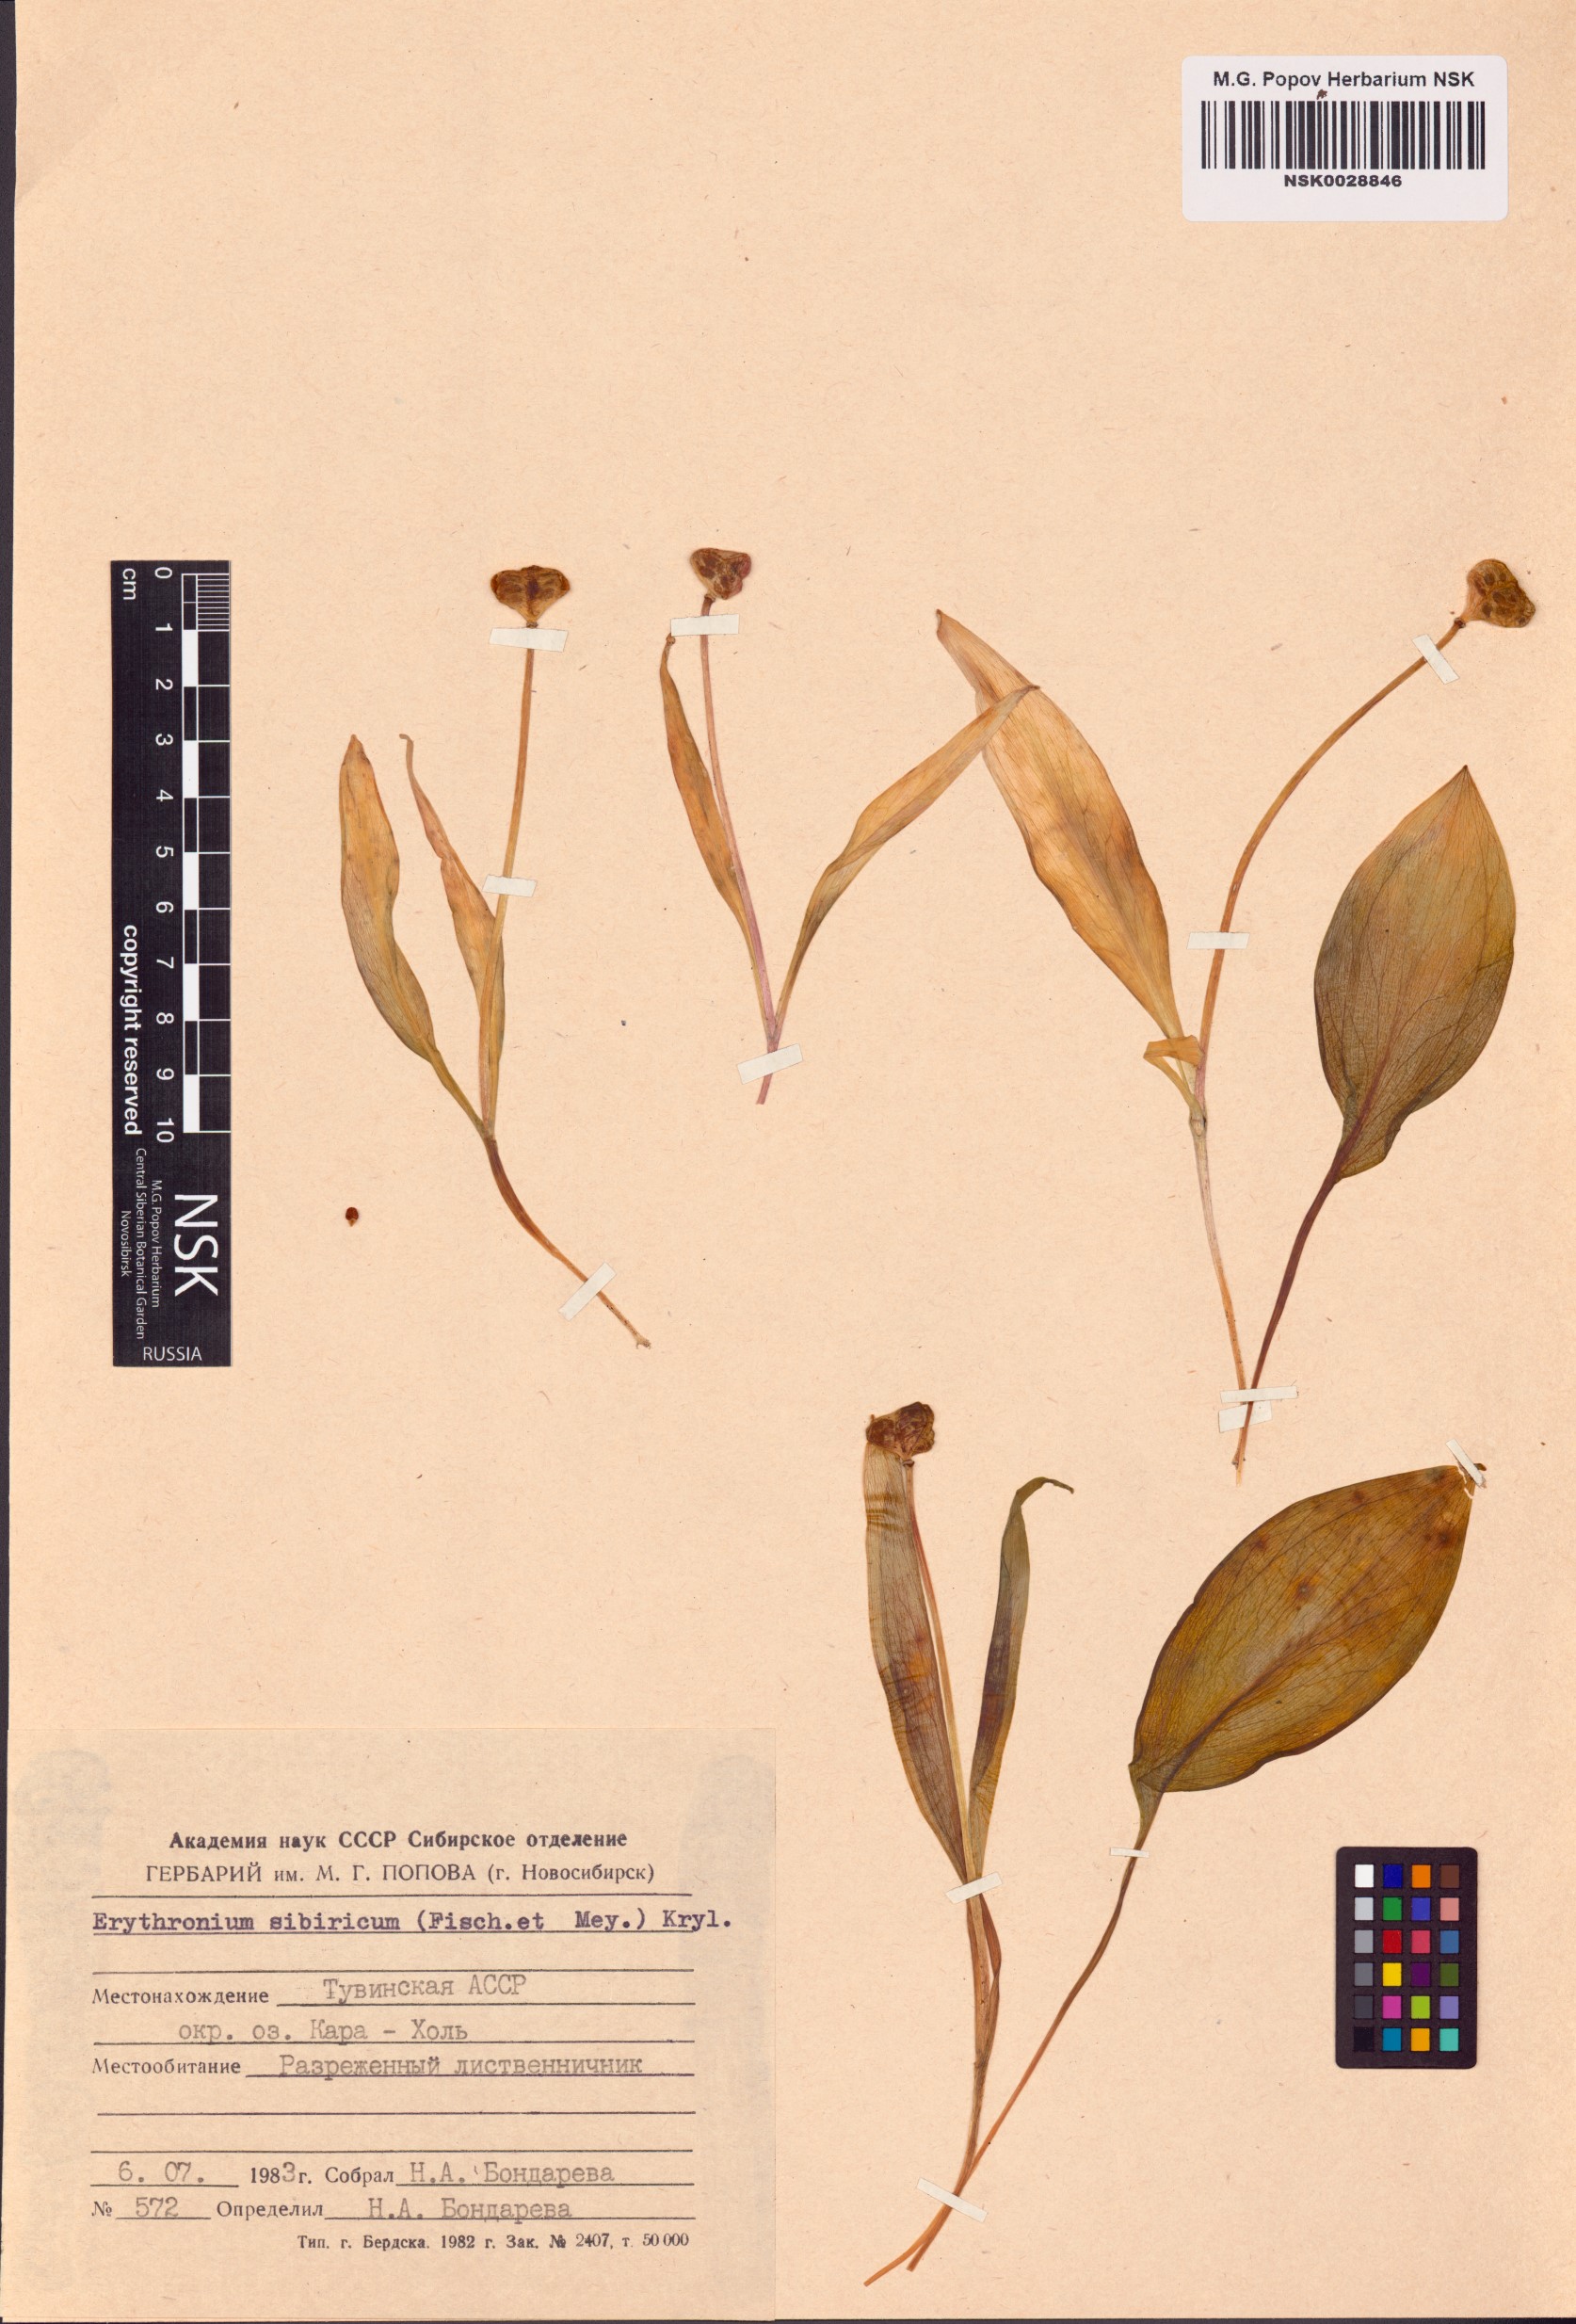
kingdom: Plantae
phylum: Tracheophyta
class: Liliopsida
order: Liliales
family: Liliaceae
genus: Erythronium
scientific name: Erythronium sibiricum
